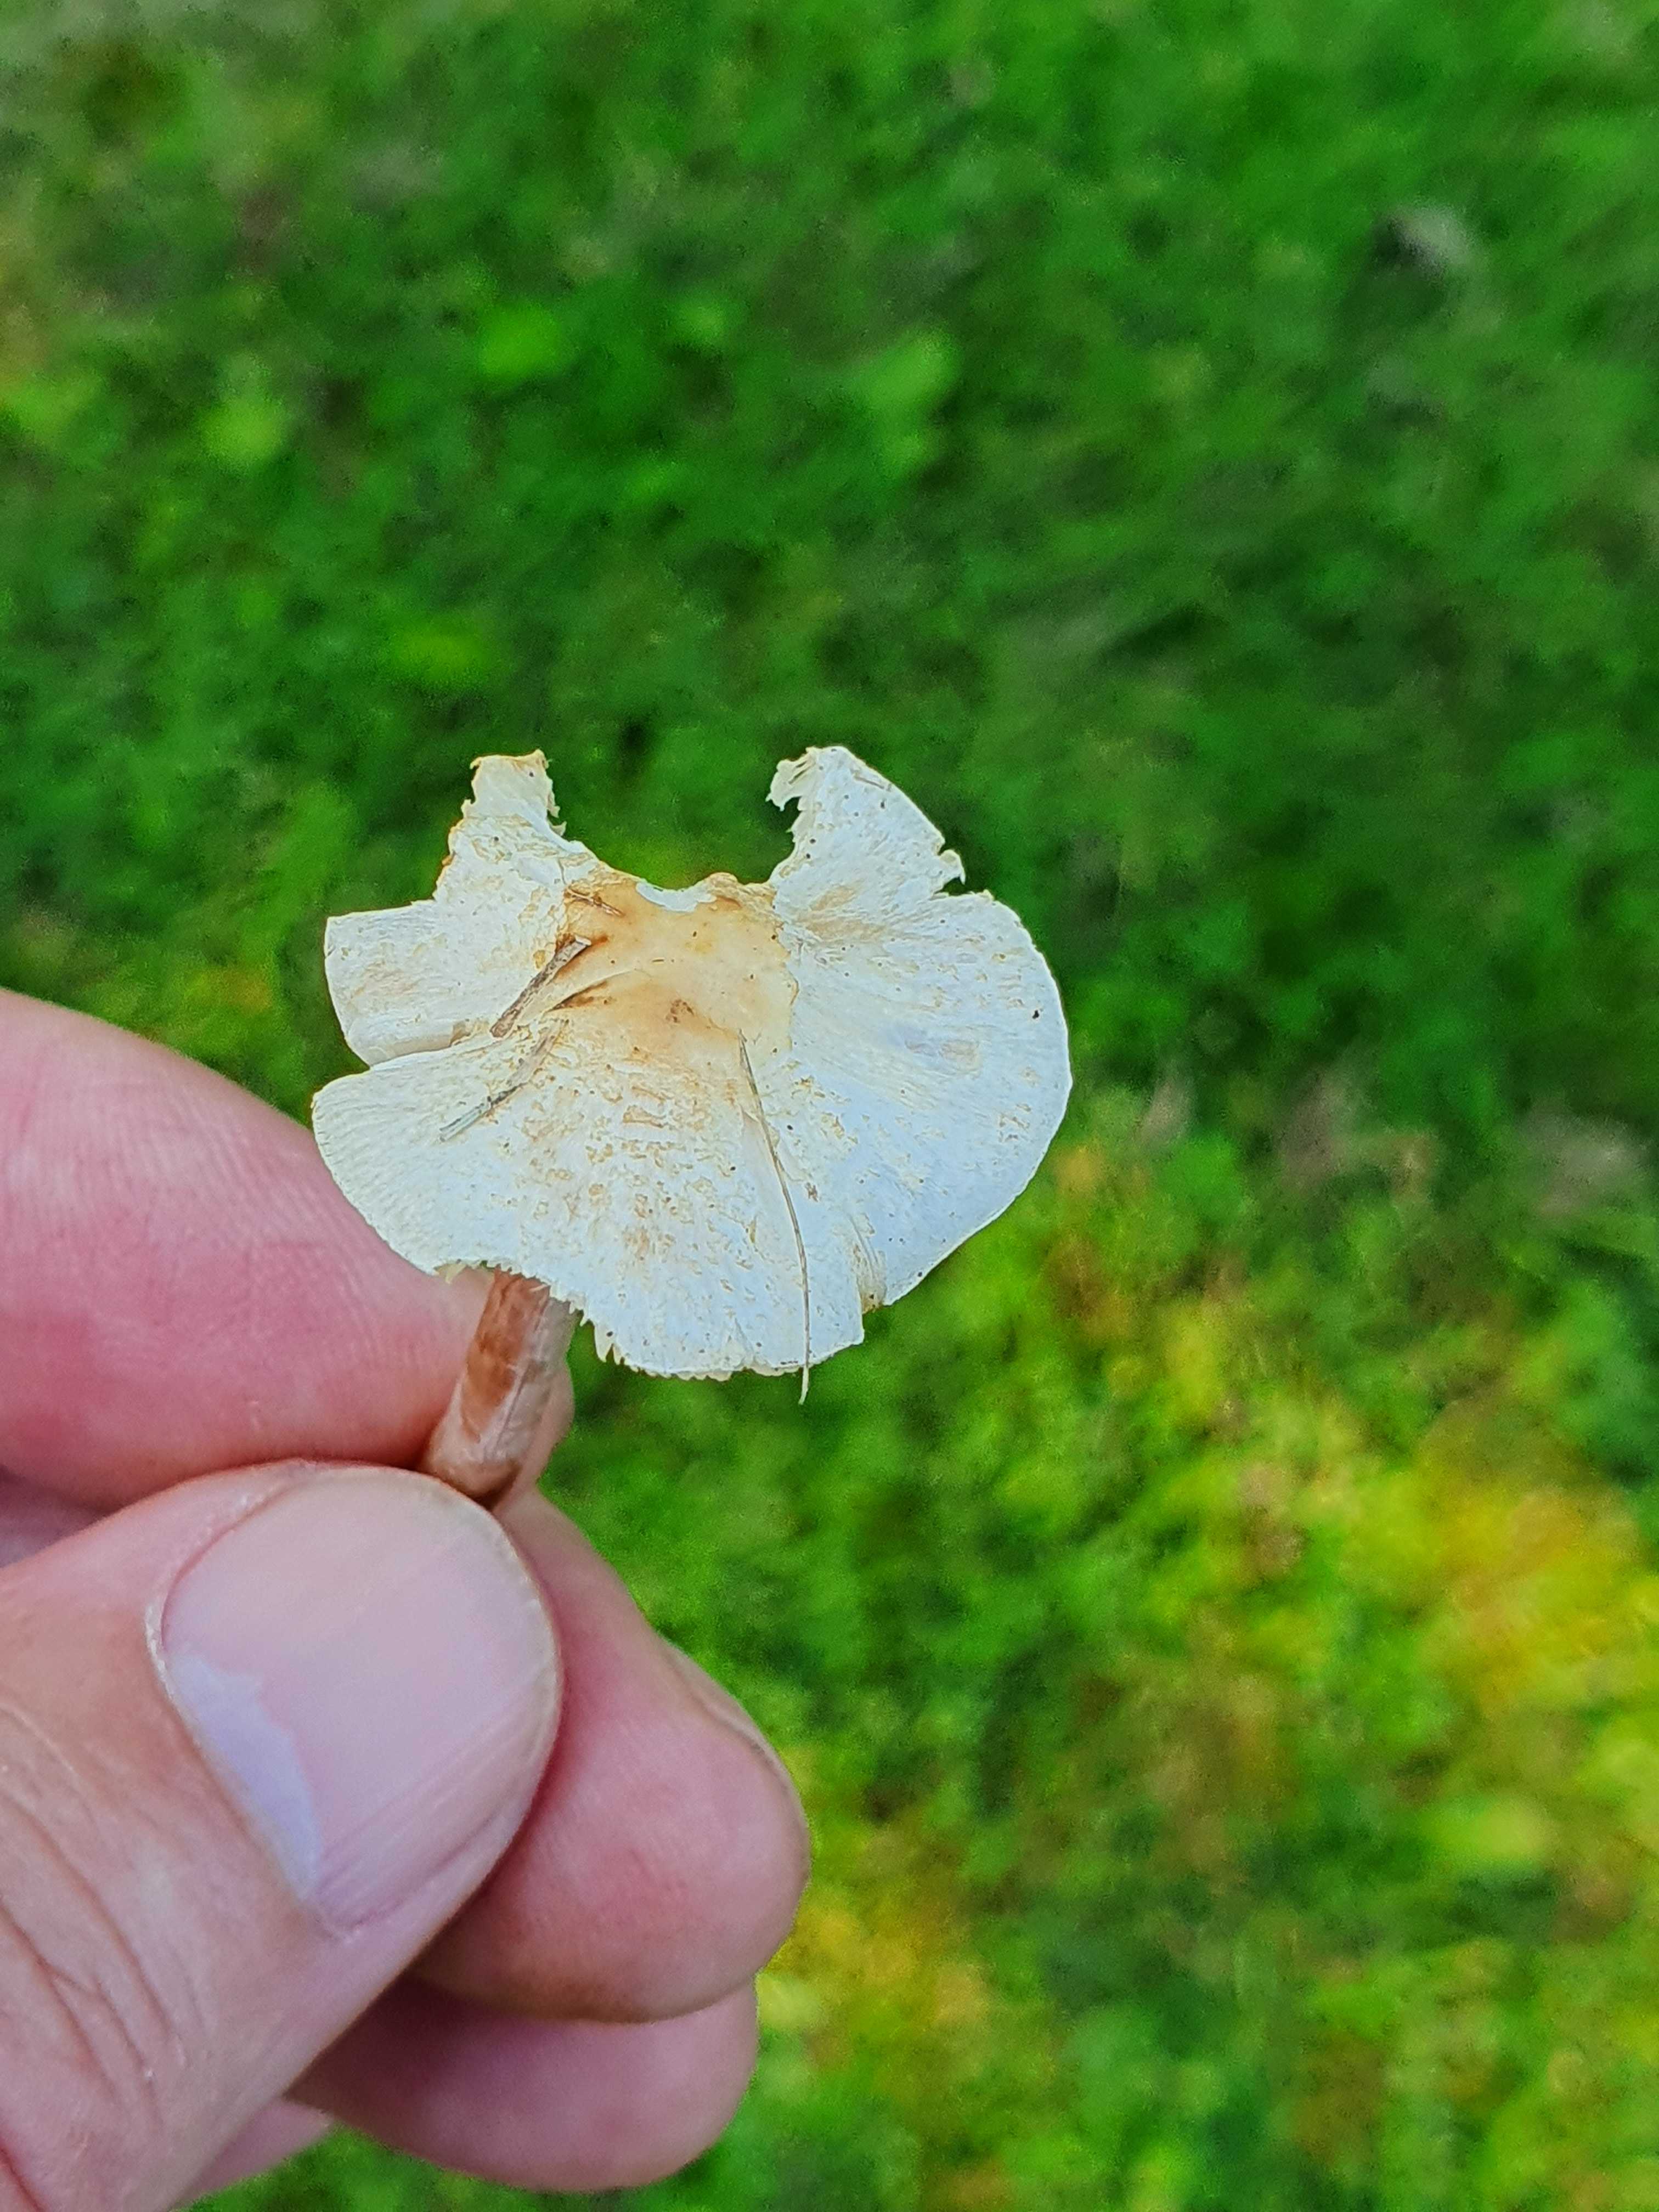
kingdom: Fungi
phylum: Basidiomycota
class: Agaricomycetes
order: Agaricales
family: Agaricaceae
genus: Lepiota
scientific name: Lepiota cristata
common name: stinkende parasolhat
